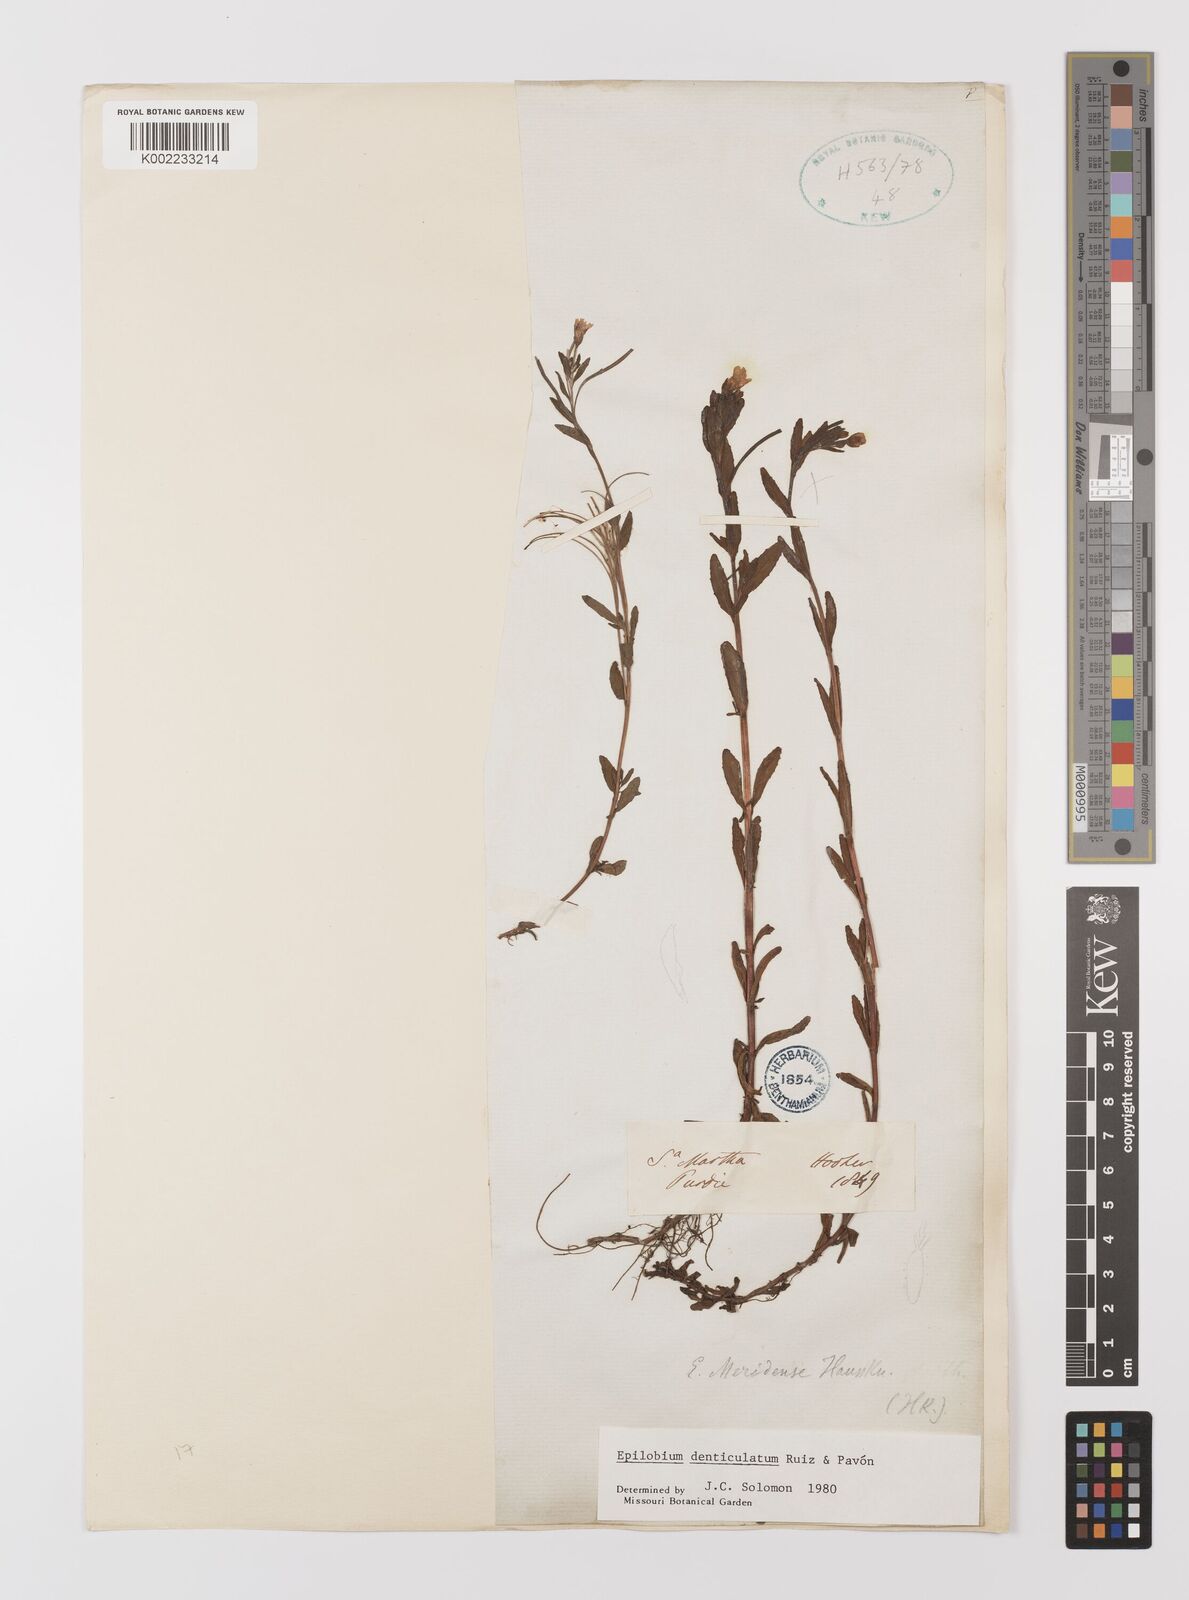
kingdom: Plantae
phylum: Tracheophyta
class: Magnoliopsida
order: Myrtales
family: Onagraceae
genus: Epilobium
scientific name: Epilobium denticulatum
